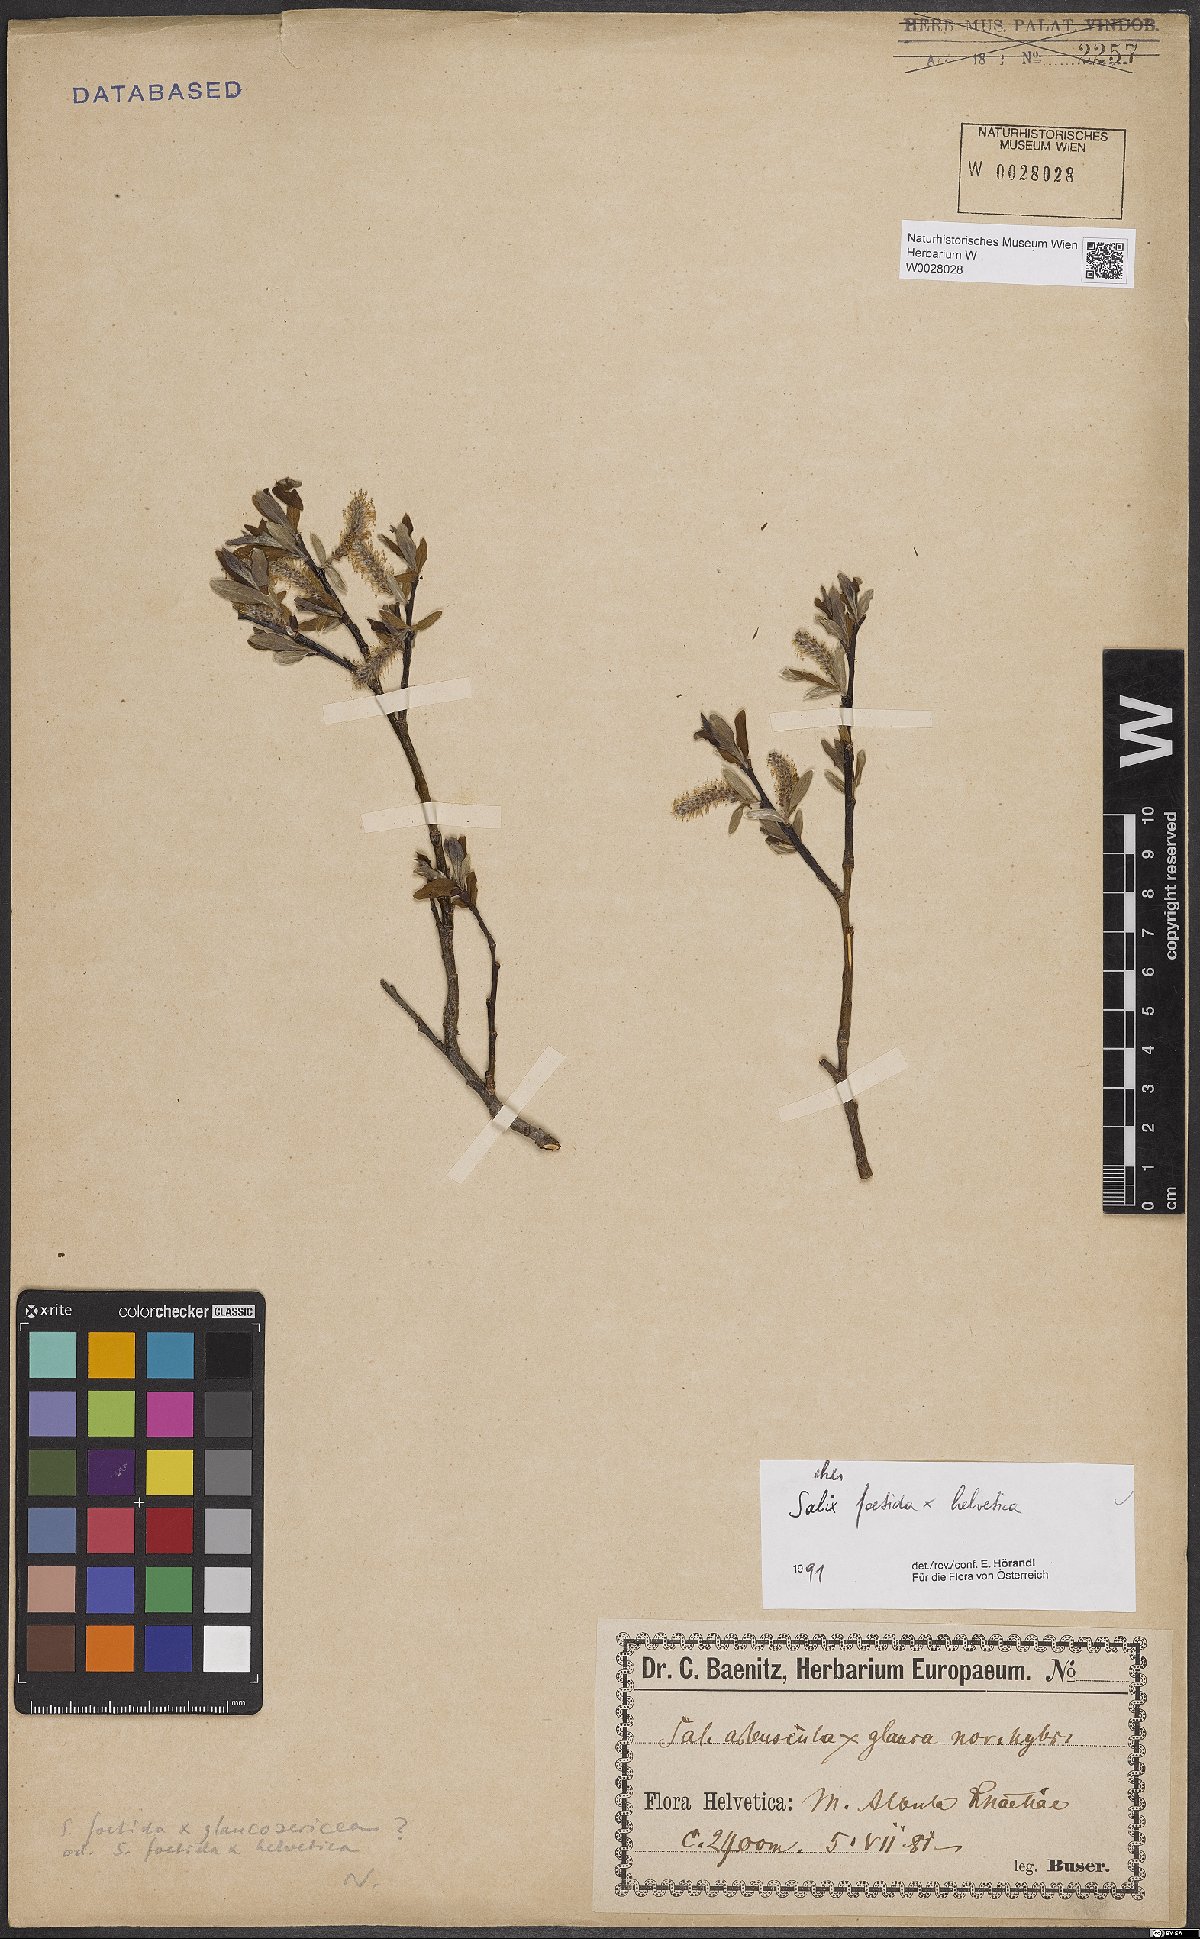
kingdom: Plantae
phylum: Tracheophyta
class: Magnoliopsida
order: Malpighiales
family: Salicaceae
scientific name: Salicaceae
